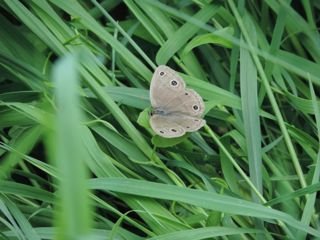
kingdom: Animalia
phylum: Arthropoda
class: Insecta
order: Lepidoptera
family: Nymphalidae
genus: Euptychia
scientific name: Euptychia cymela
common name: Little Wood Satyr
